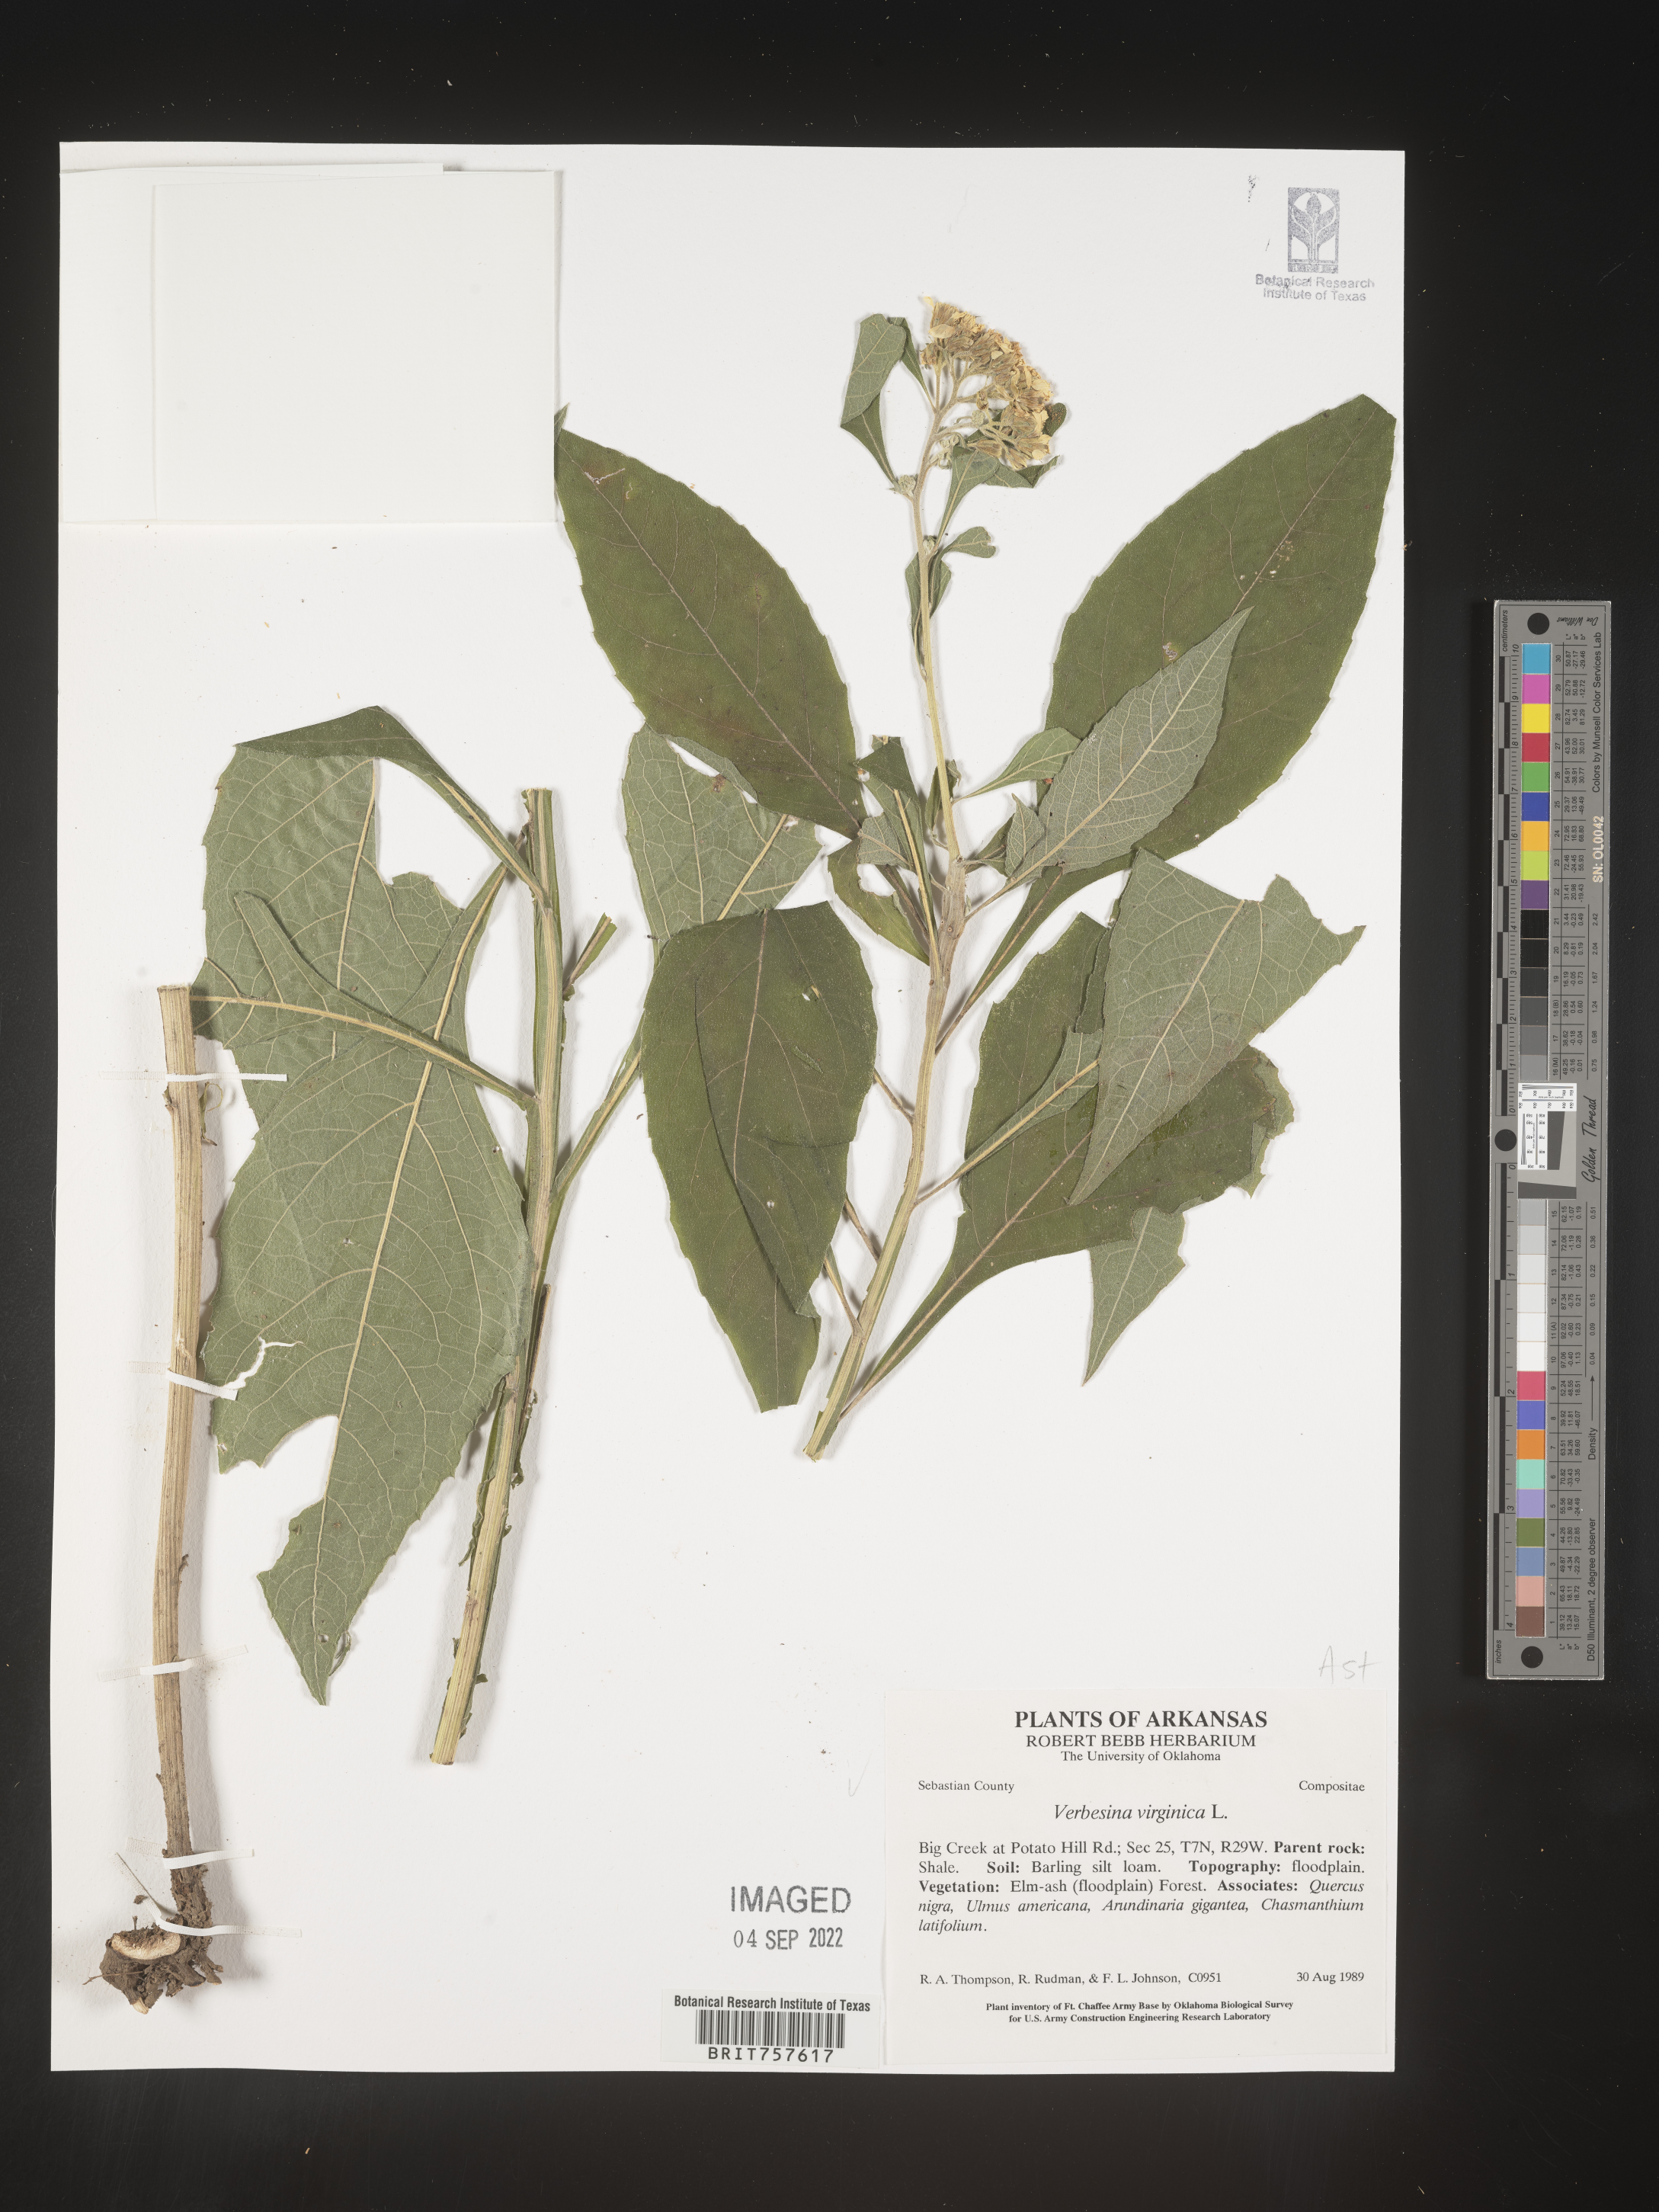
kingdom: Plantae
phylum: Tracheophyta
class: Magnoliopsida
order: Asterales
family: Asteraceae
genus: Verbesina
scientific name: Verbesina virginica
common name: Frostweed
